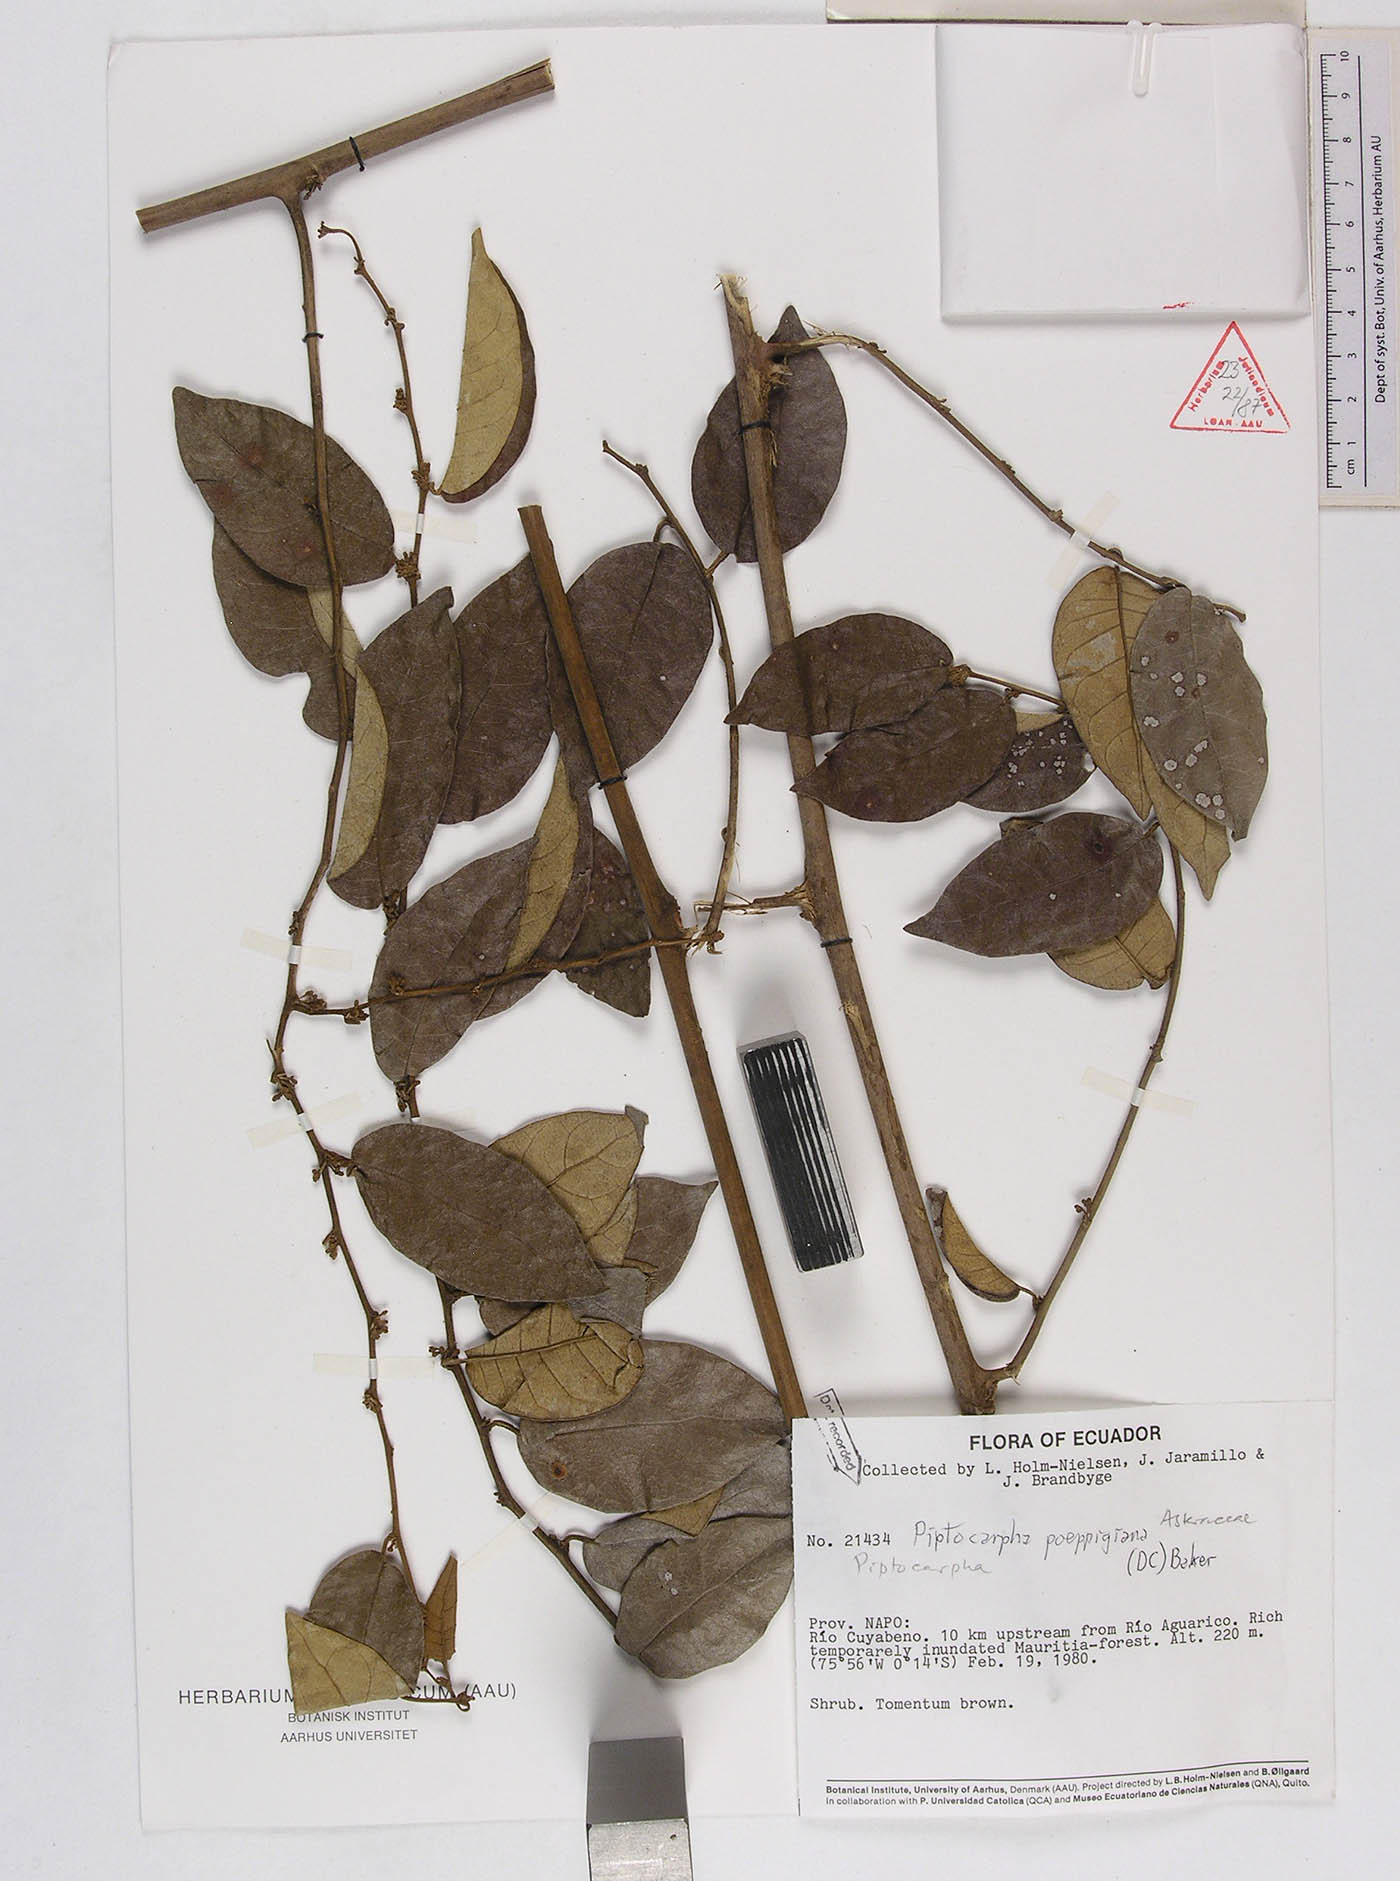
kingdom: Plantae
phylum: Tracheophyta
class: Magnoliopsida
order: Asterales
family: Asteraceae
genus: Piptocarpha
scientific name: Piptocarpha poeppigiana
